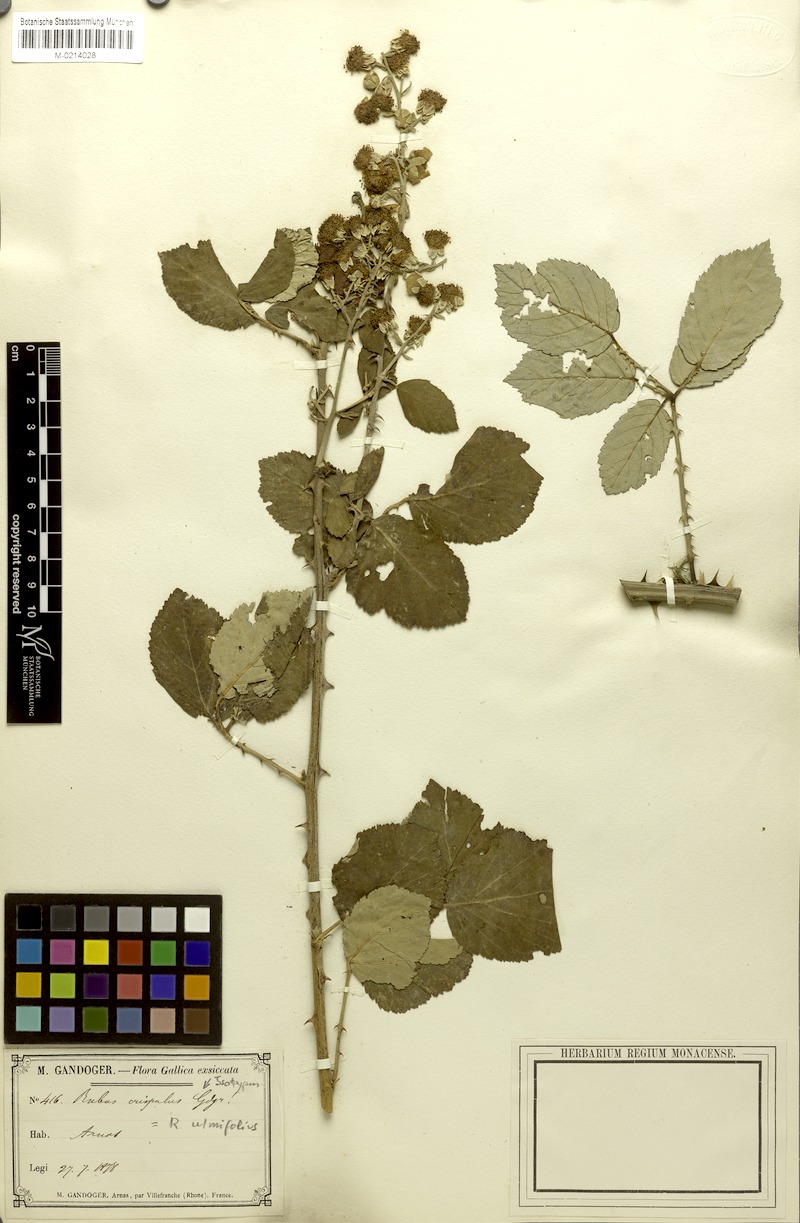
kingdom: Plantae
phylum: Tracheophyta
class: Magnoliopsida
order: Rosales
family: Rosaceae
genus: Rubus
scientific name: Rubus ulmifolius
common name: Elmleaf blackberry
